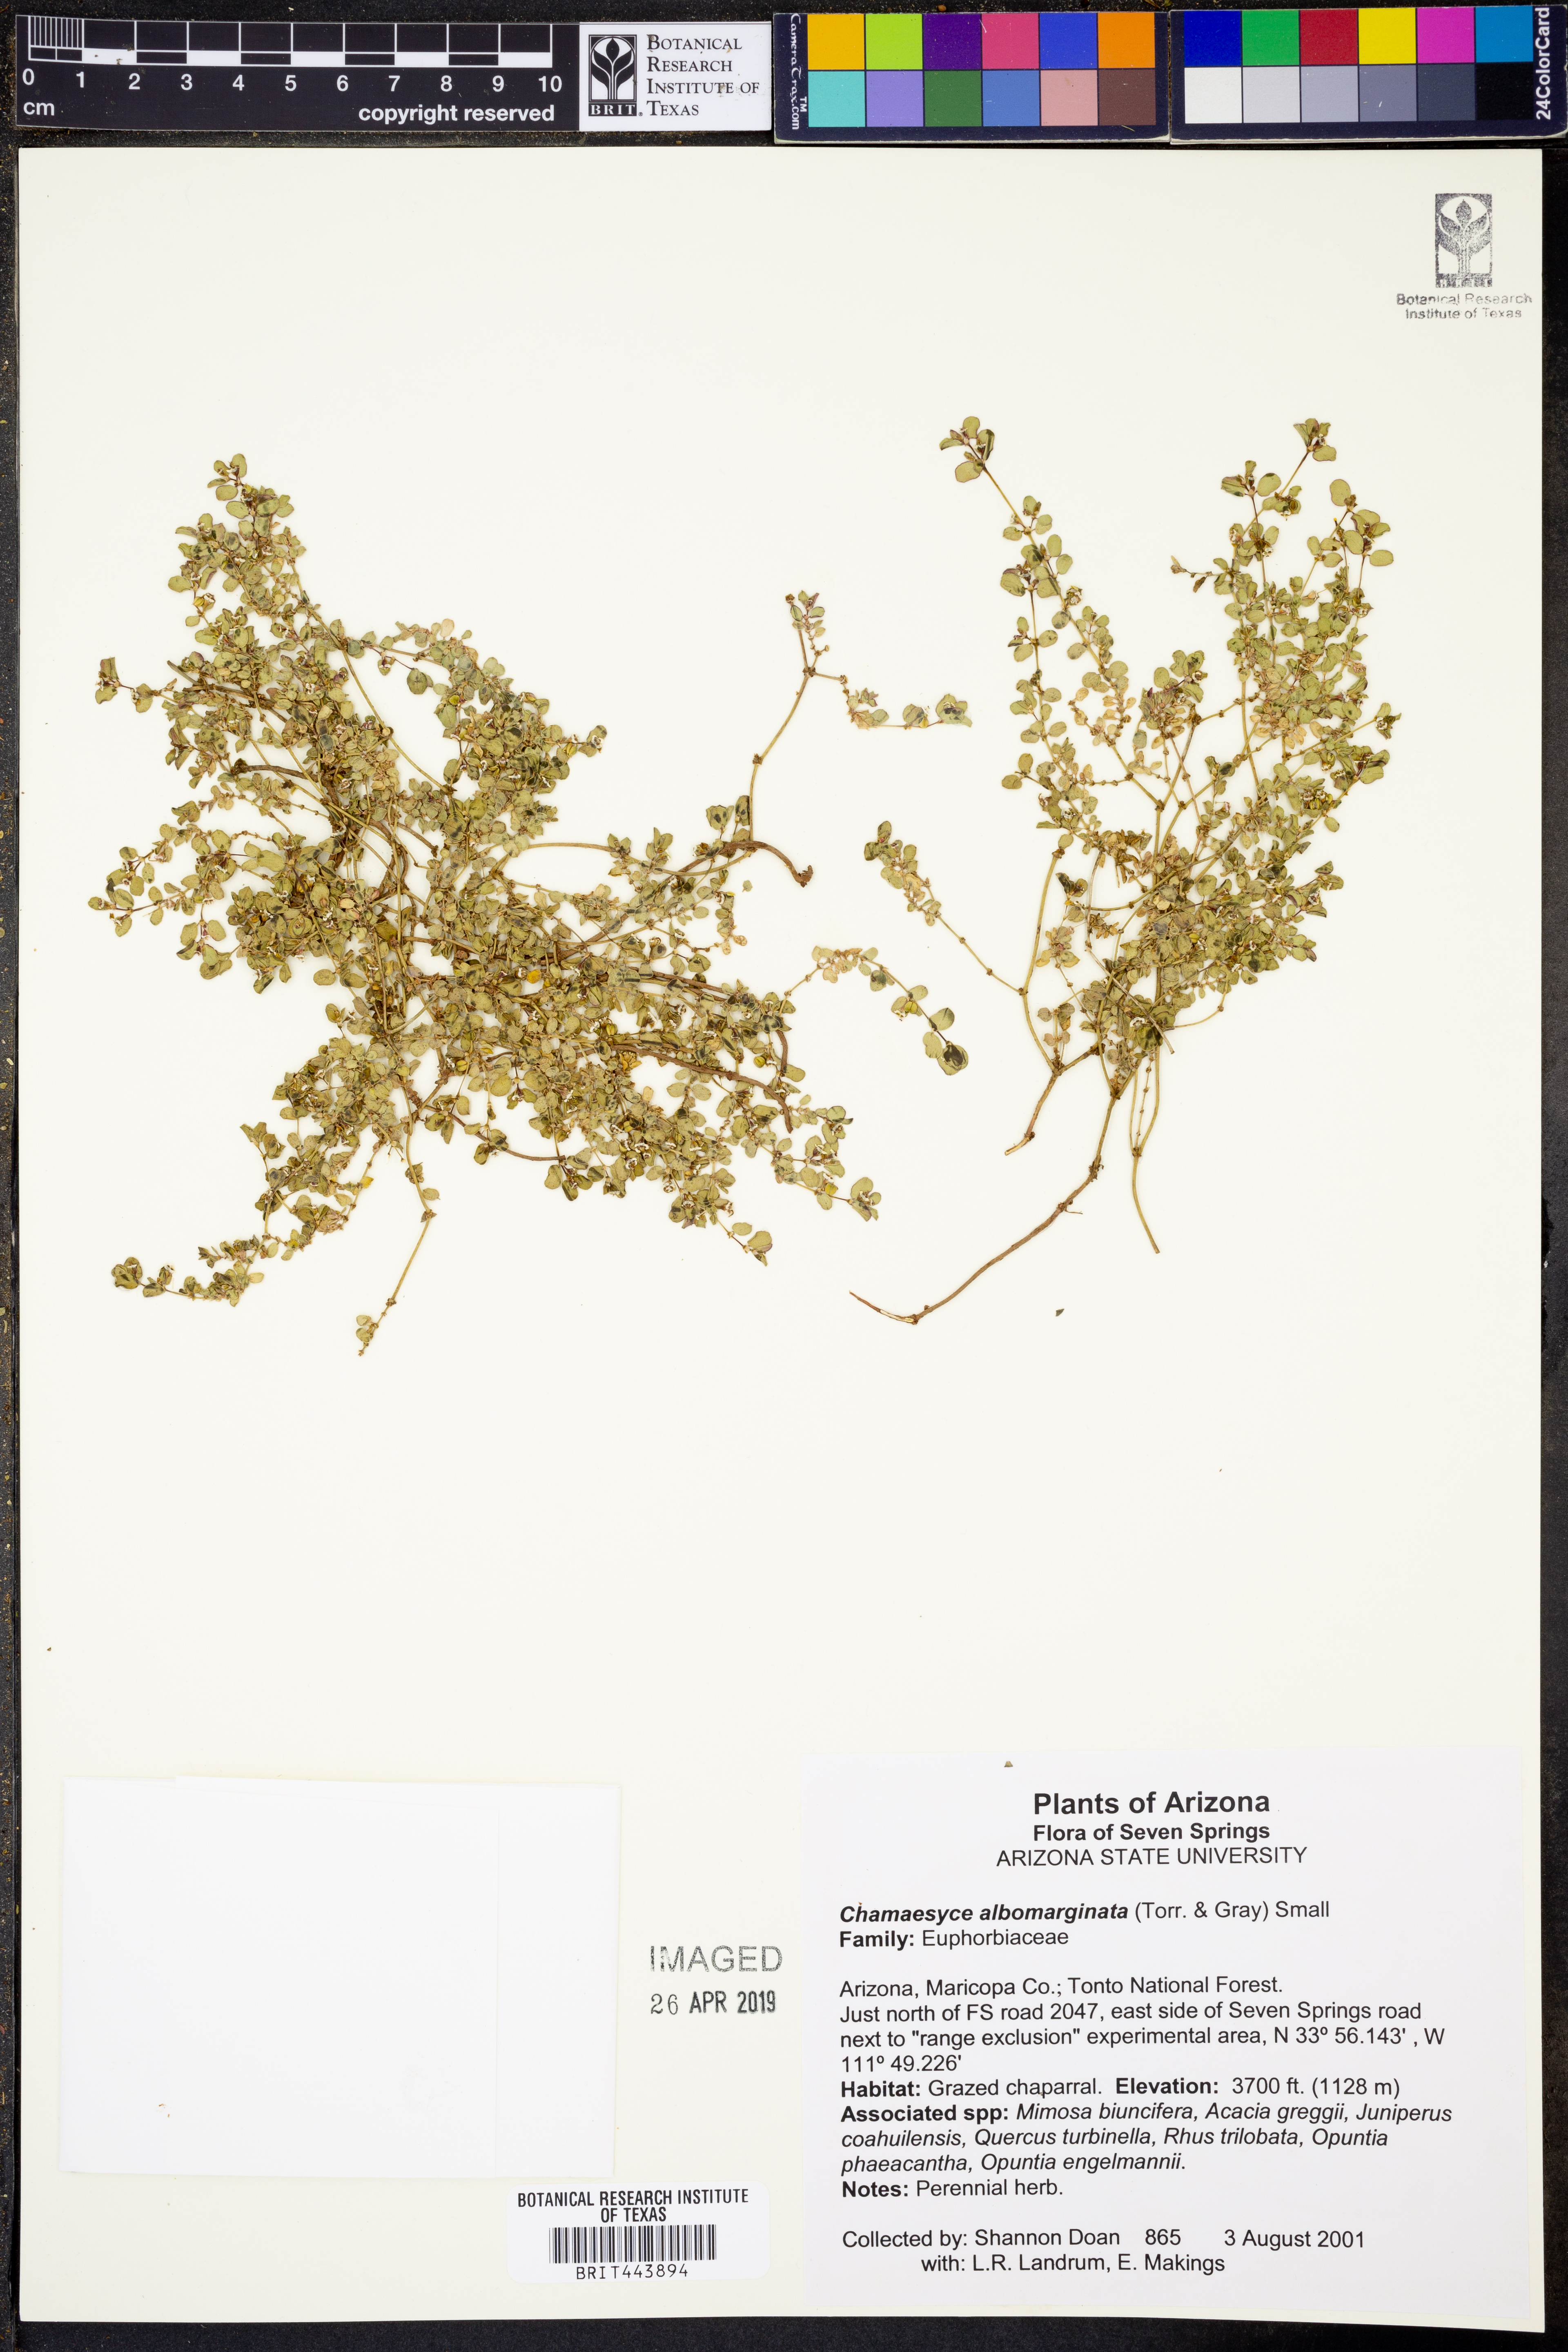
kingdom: Plantae
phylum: Tracheophyta
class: Magnoliopsida
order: Malpighiales
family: Euphorbiaceae
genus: Euphorbia
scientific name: Euphorbia albomarginata
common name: Whitemargin sandmat
